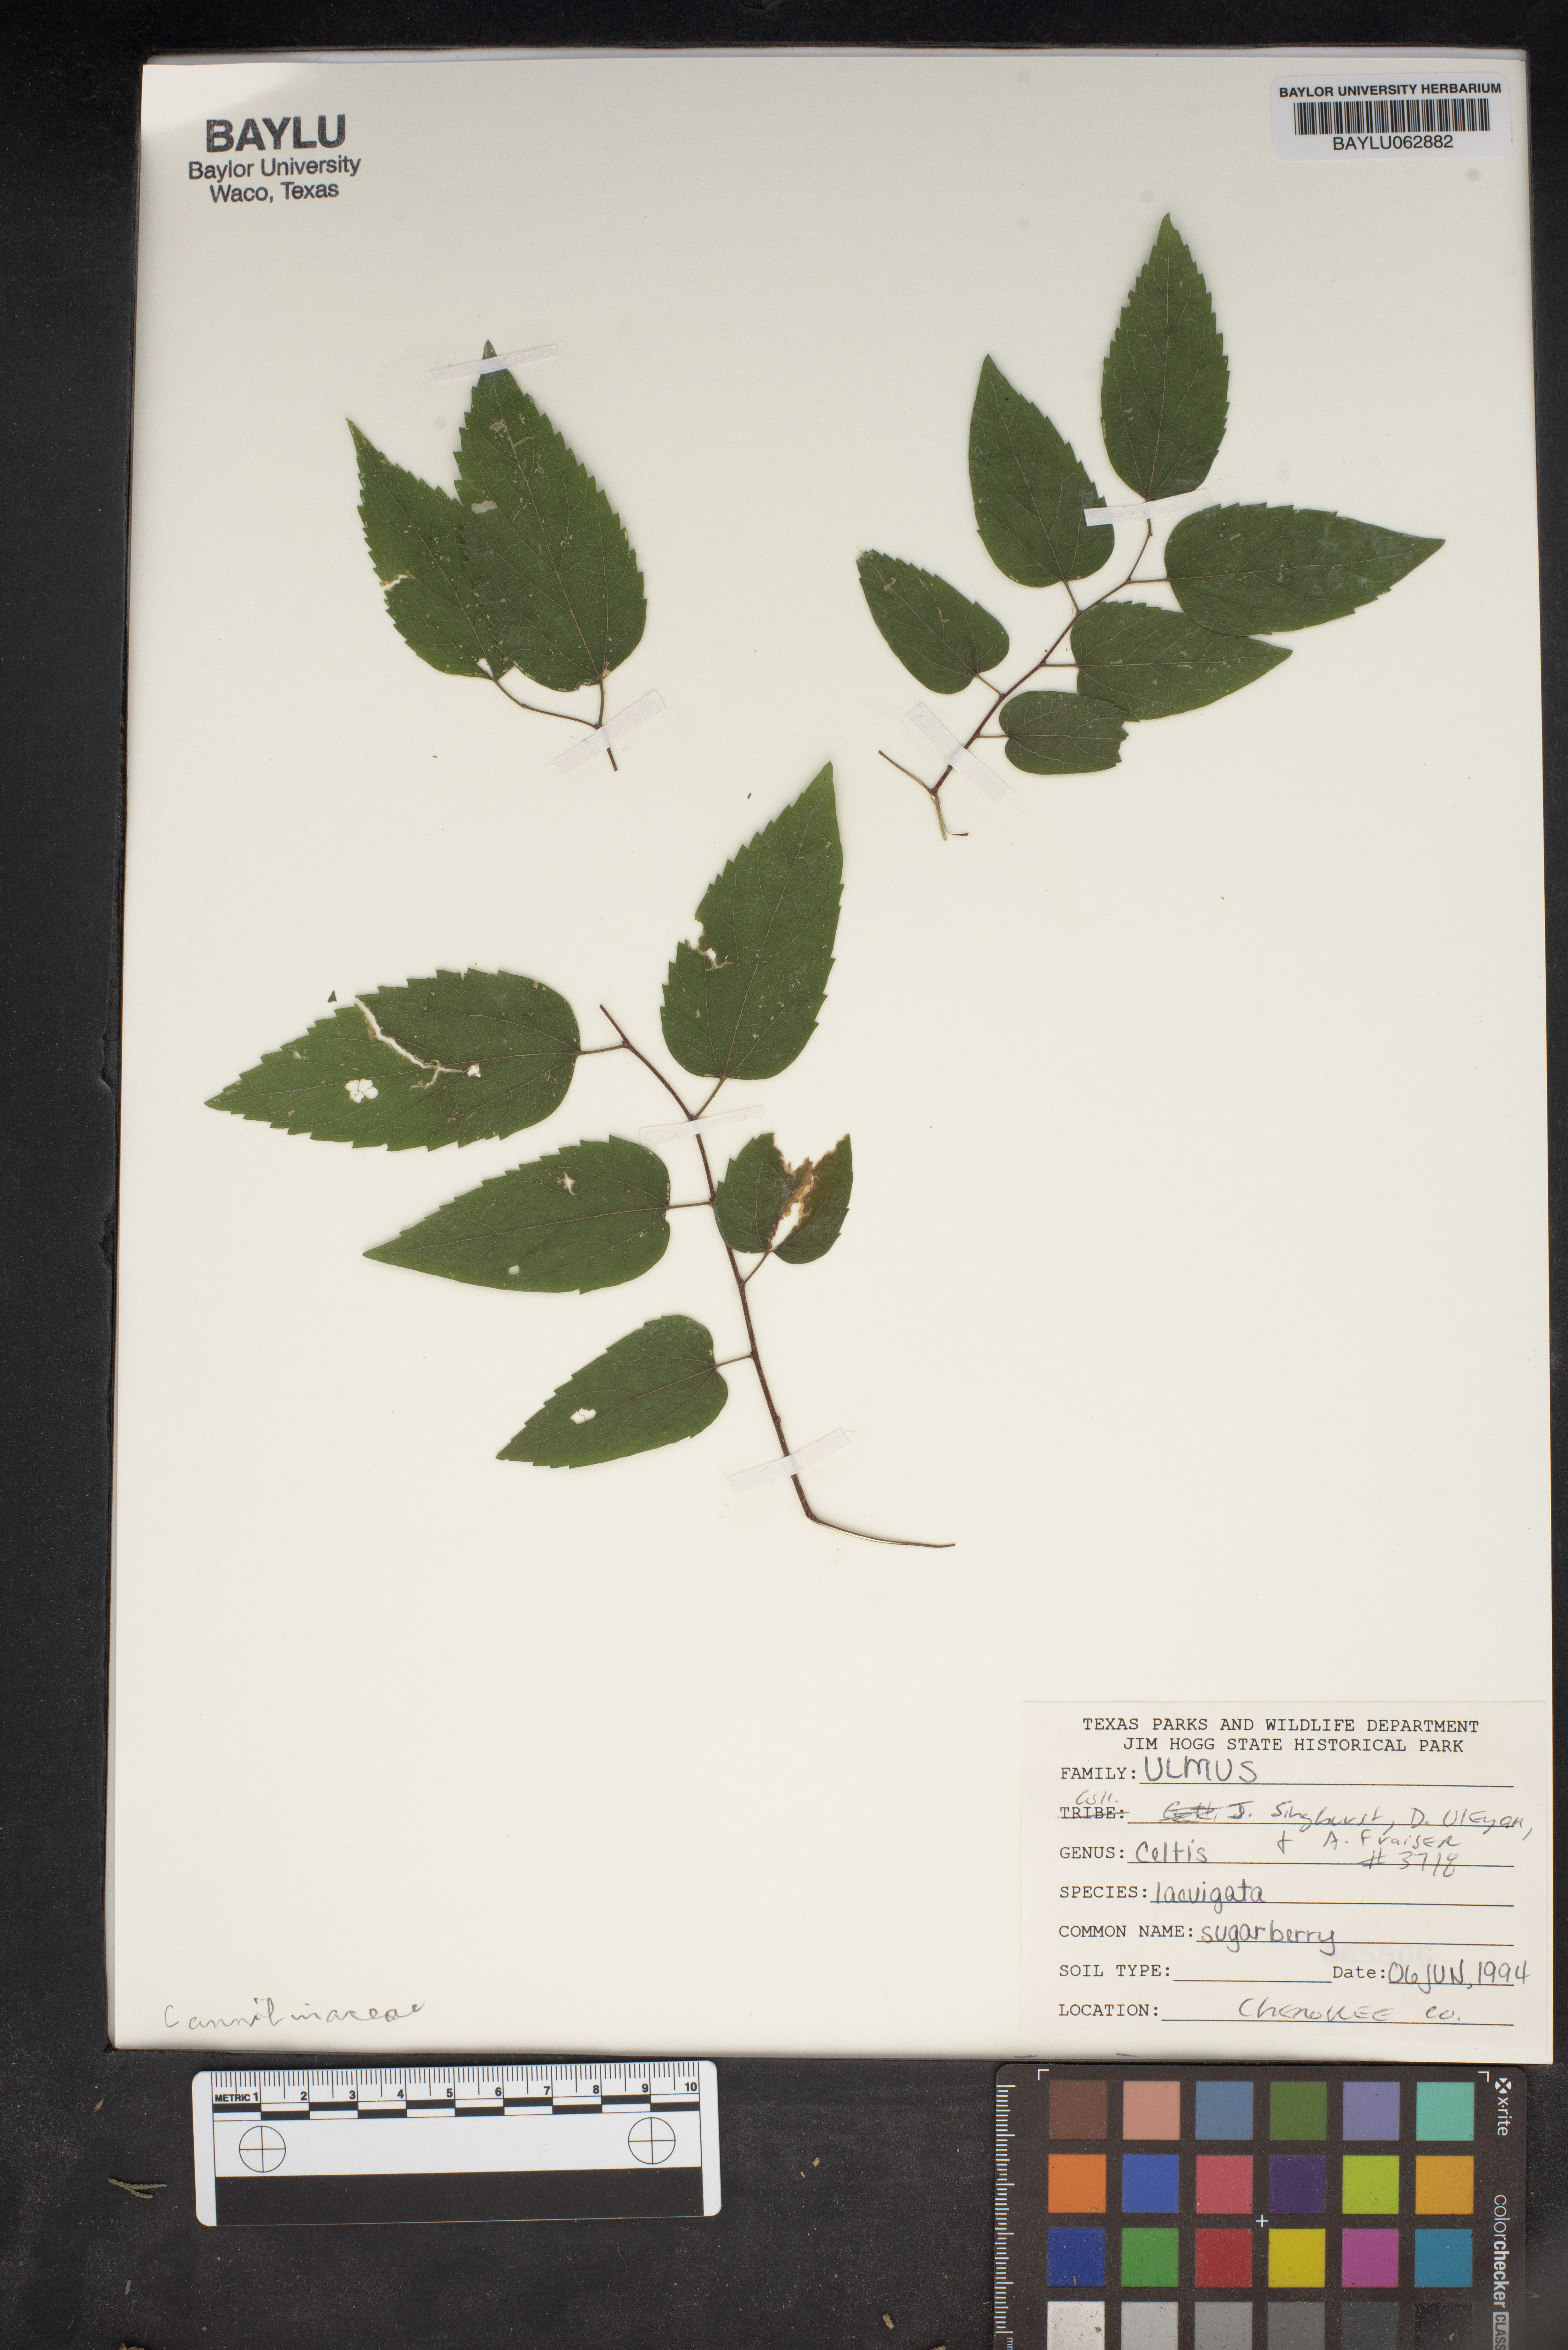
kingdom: Plantae
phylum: Tracheophyta
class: Magnoliopsida
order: Rosales
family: Cannabaceae
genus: Celtis
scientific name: Celtis laevigata
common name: Sugarberry
